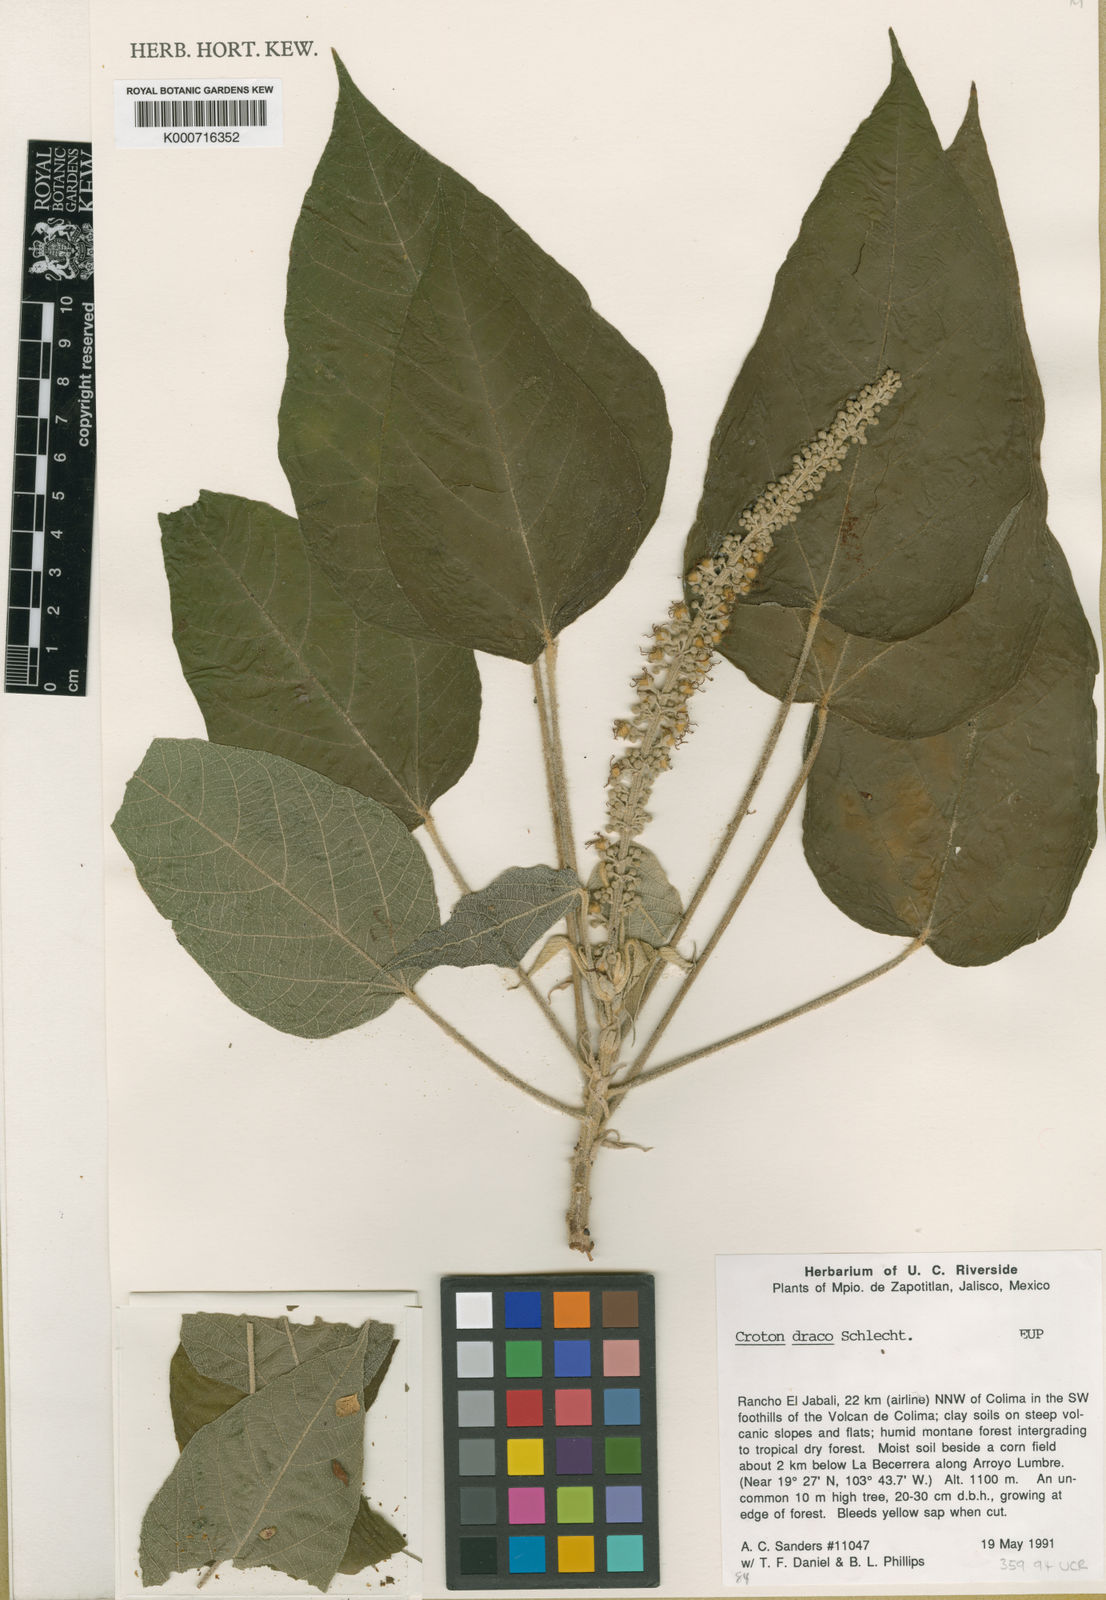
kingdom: Plantae
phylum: Tracheophyta
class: Magnoliopsida
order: Malpighiales
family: Euphorbiaceae
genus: Croton
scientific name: Croton draco
